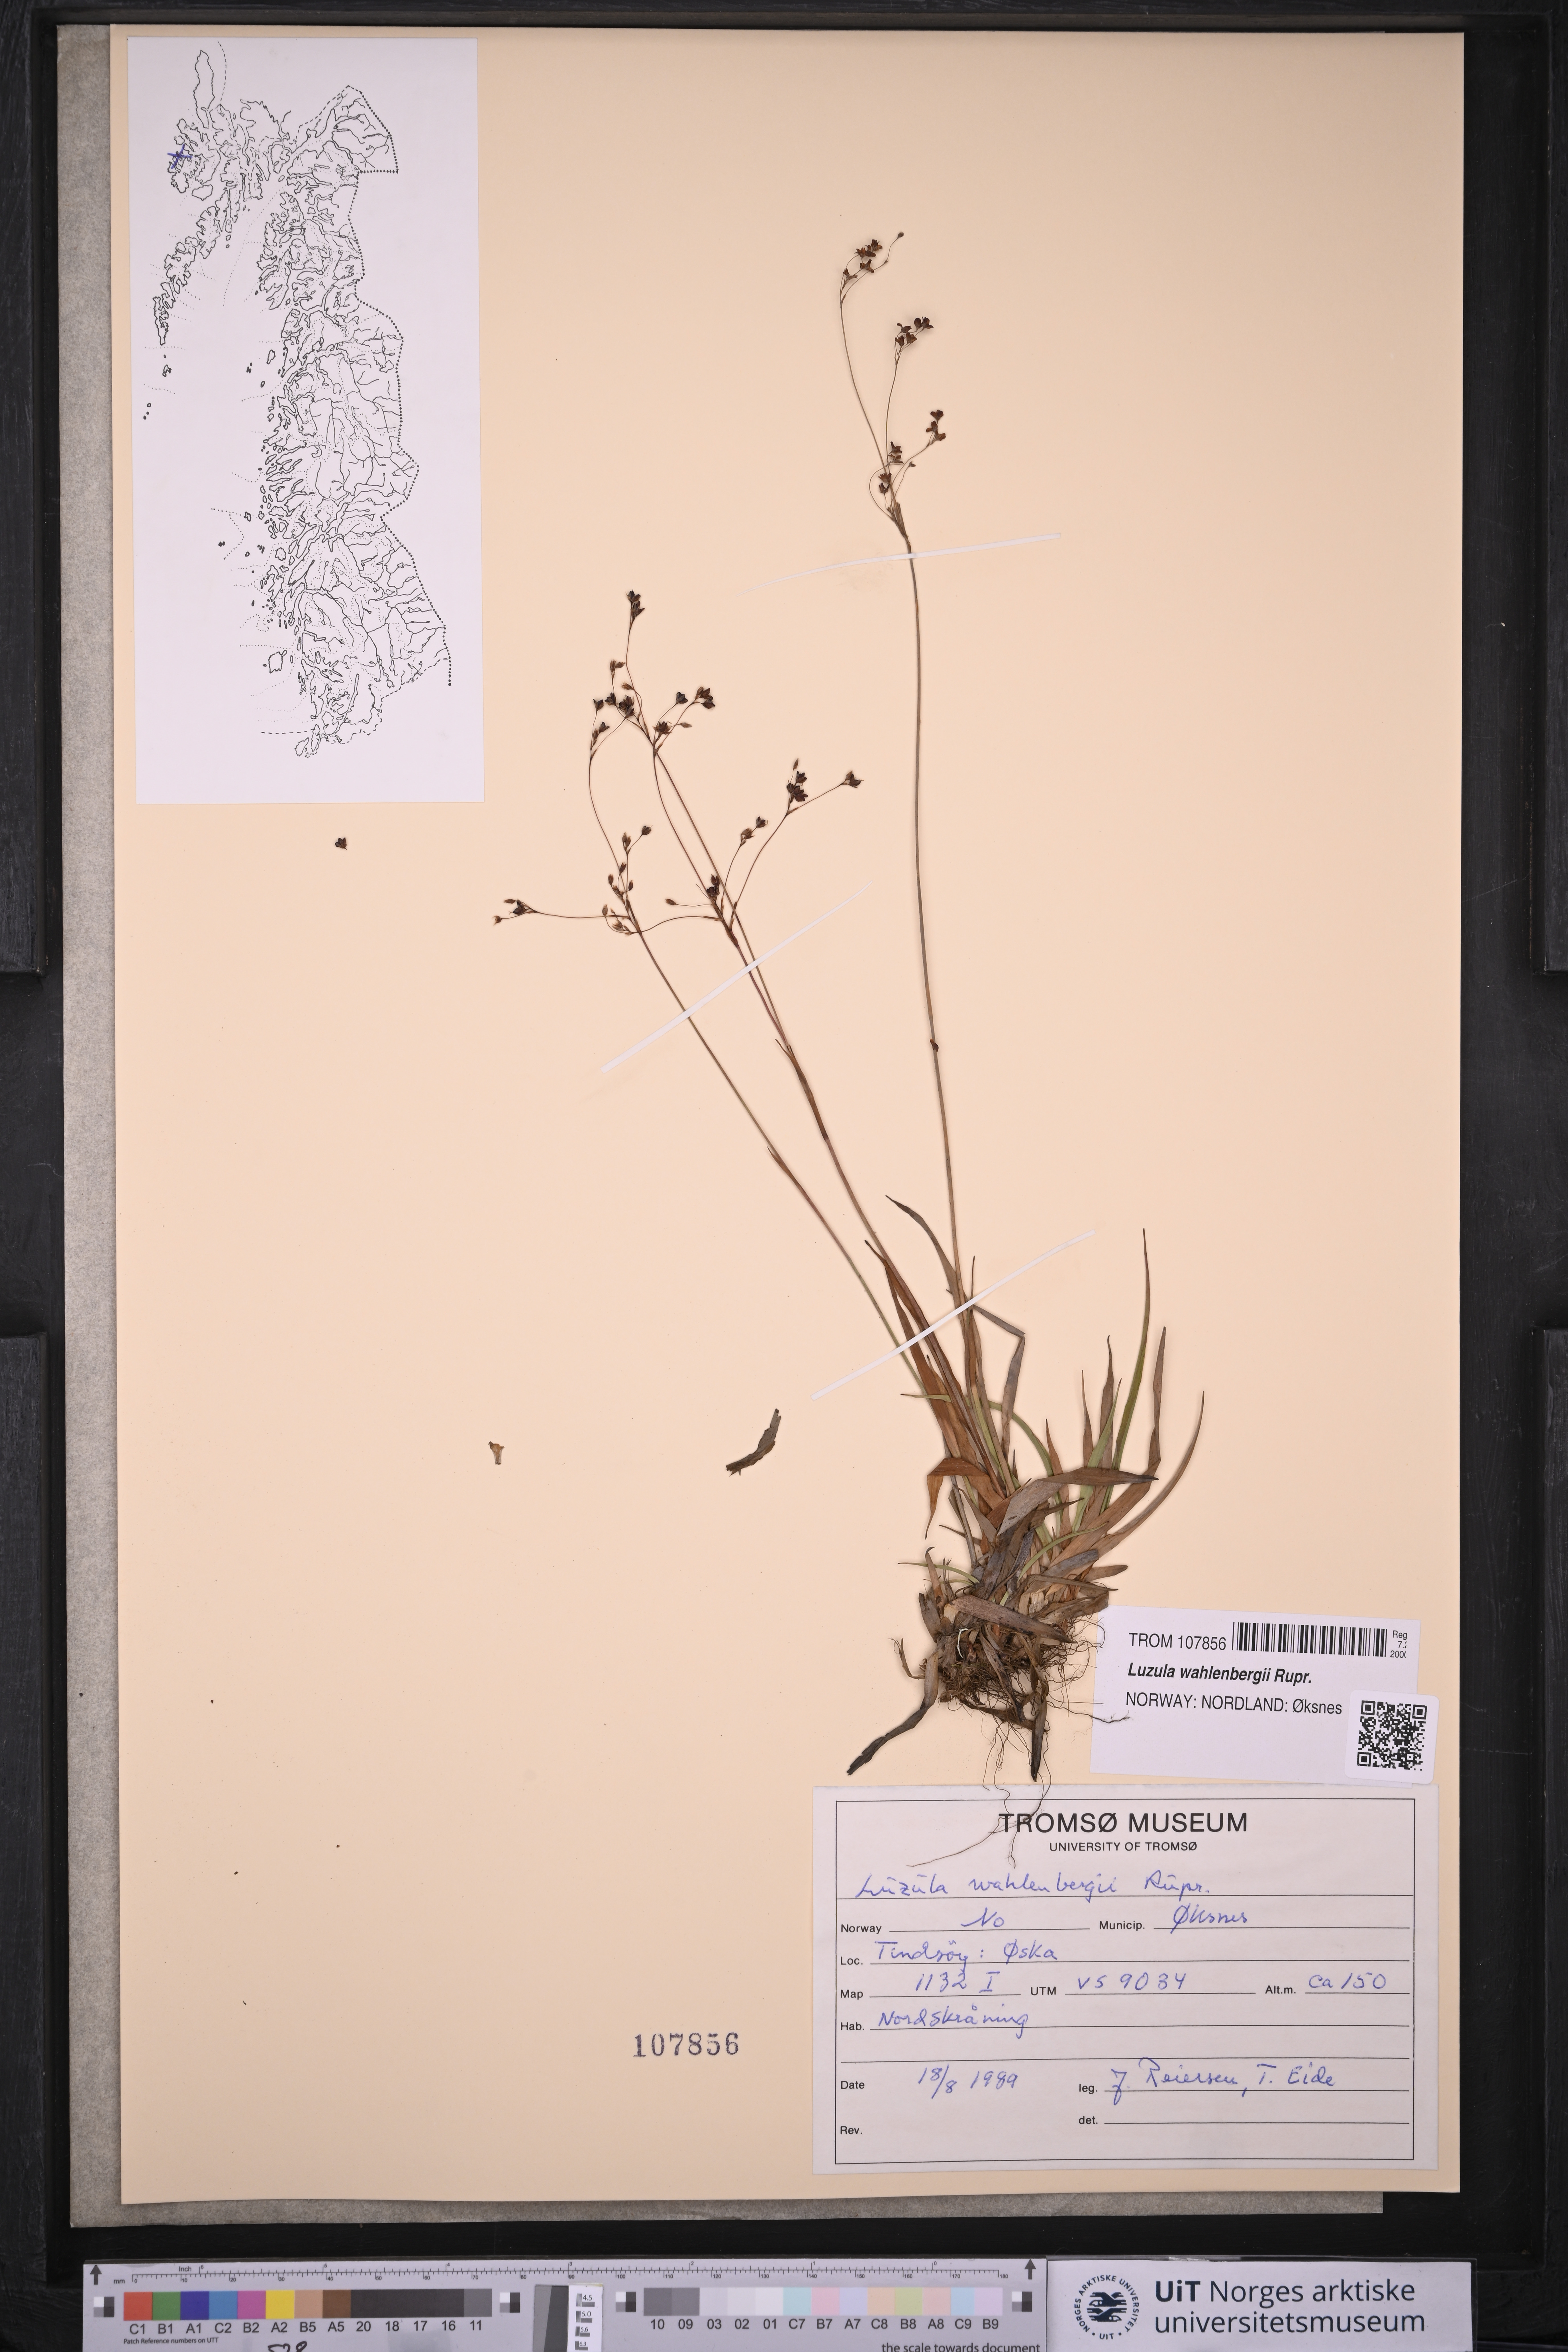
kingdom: Plantae
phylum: Tracheophyta
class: Liliopsida
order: Poales
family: Juncaceae
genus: Luzula
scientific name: Luzula wahlenbergii
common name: Wahlenberg's wood-rush
